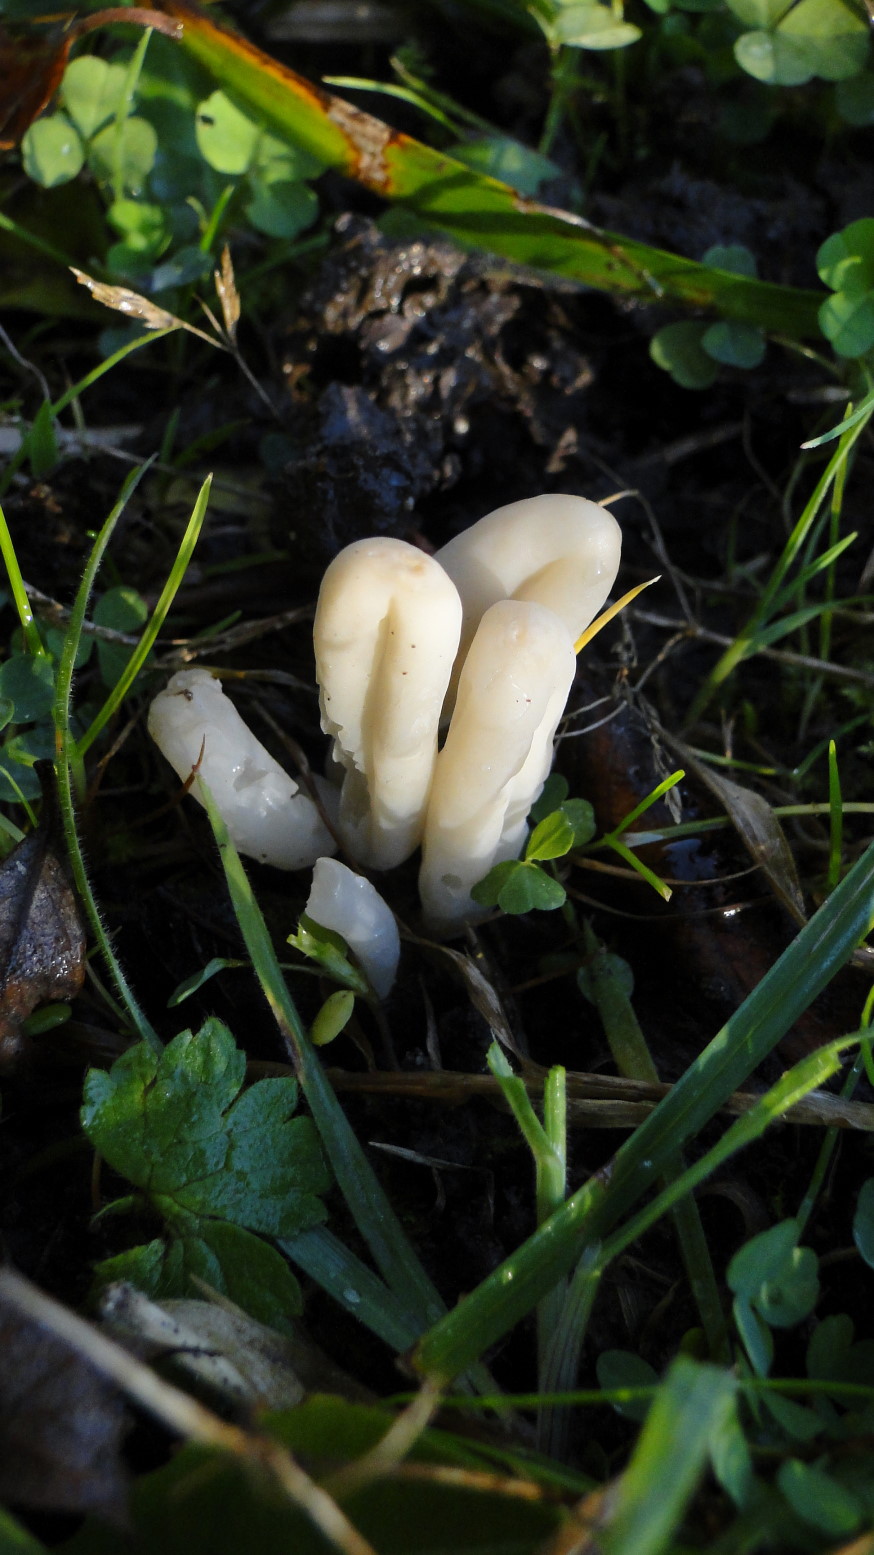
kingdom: Fungi
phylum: Basidiomycota
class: Agaricomycetes
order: Agaricales
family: Clavariaceae
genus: Clavaria
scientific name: Clavaria falcata
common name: hvid køllesvamp
